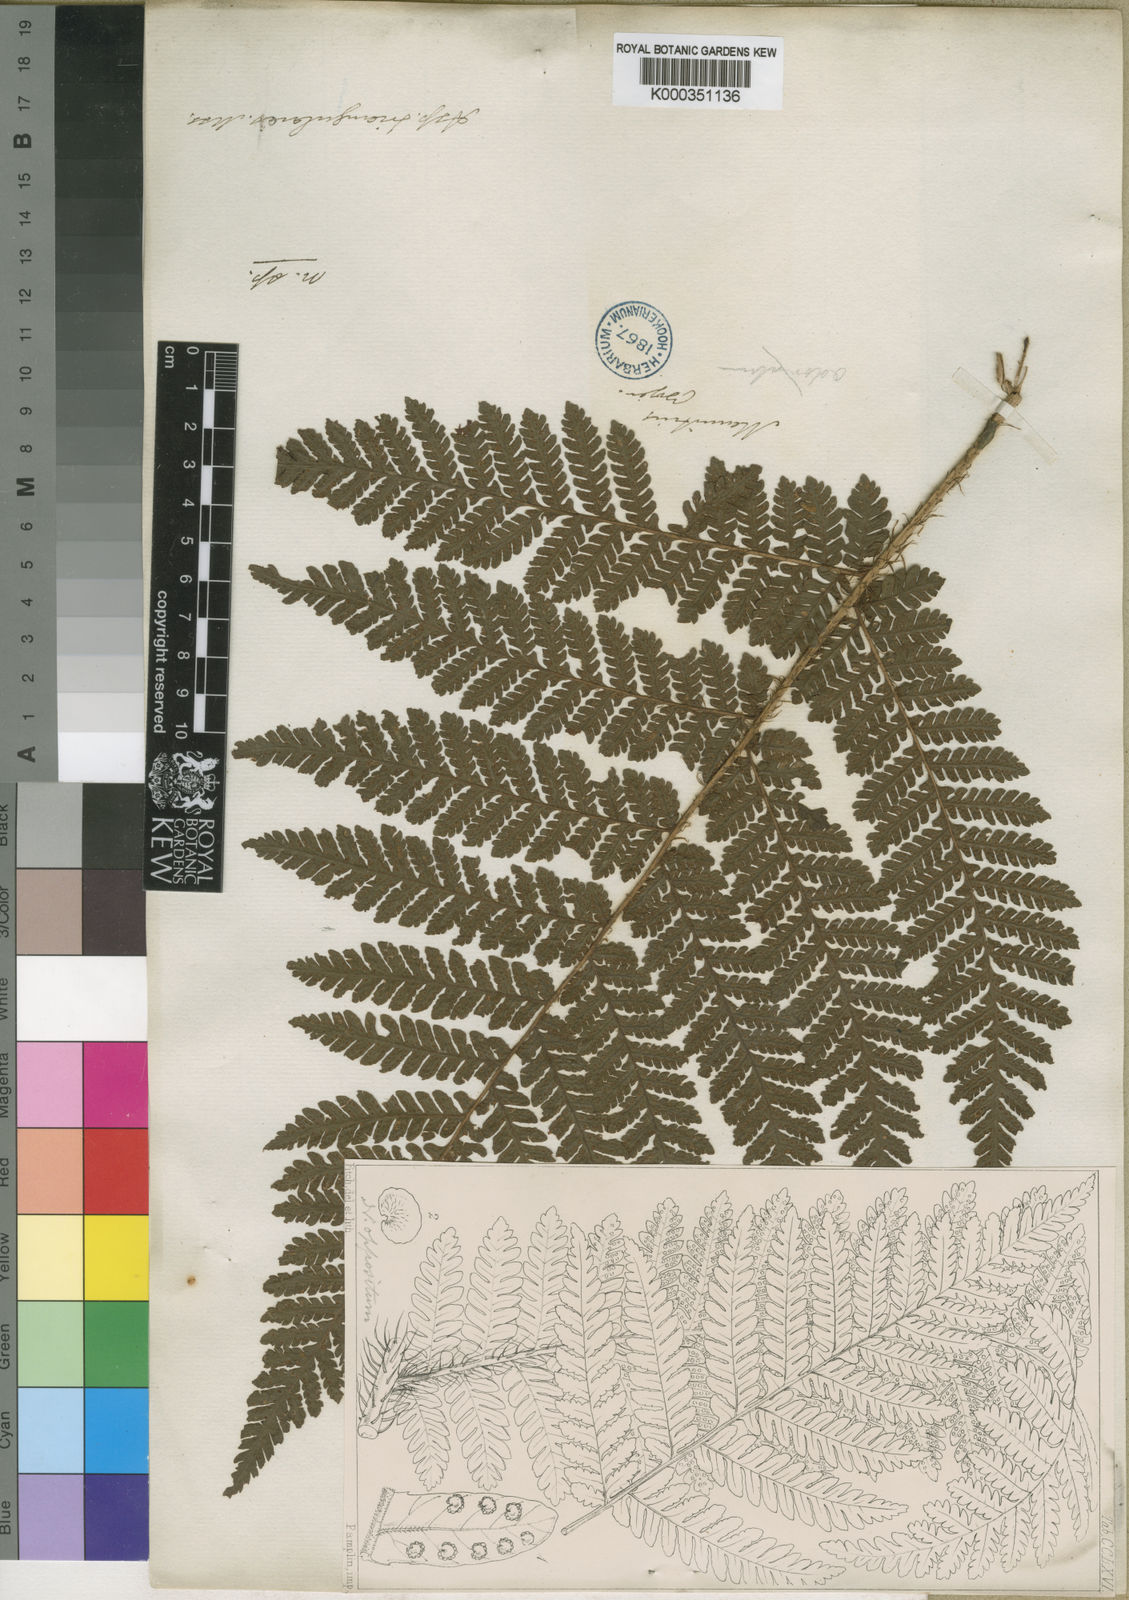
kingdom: Plantae
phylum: Tracheophyta
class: Polypodiopsida
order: Polypodiales
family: Dryopteridaceae
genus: Megalastrum
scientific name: Megalastrum oppositum
